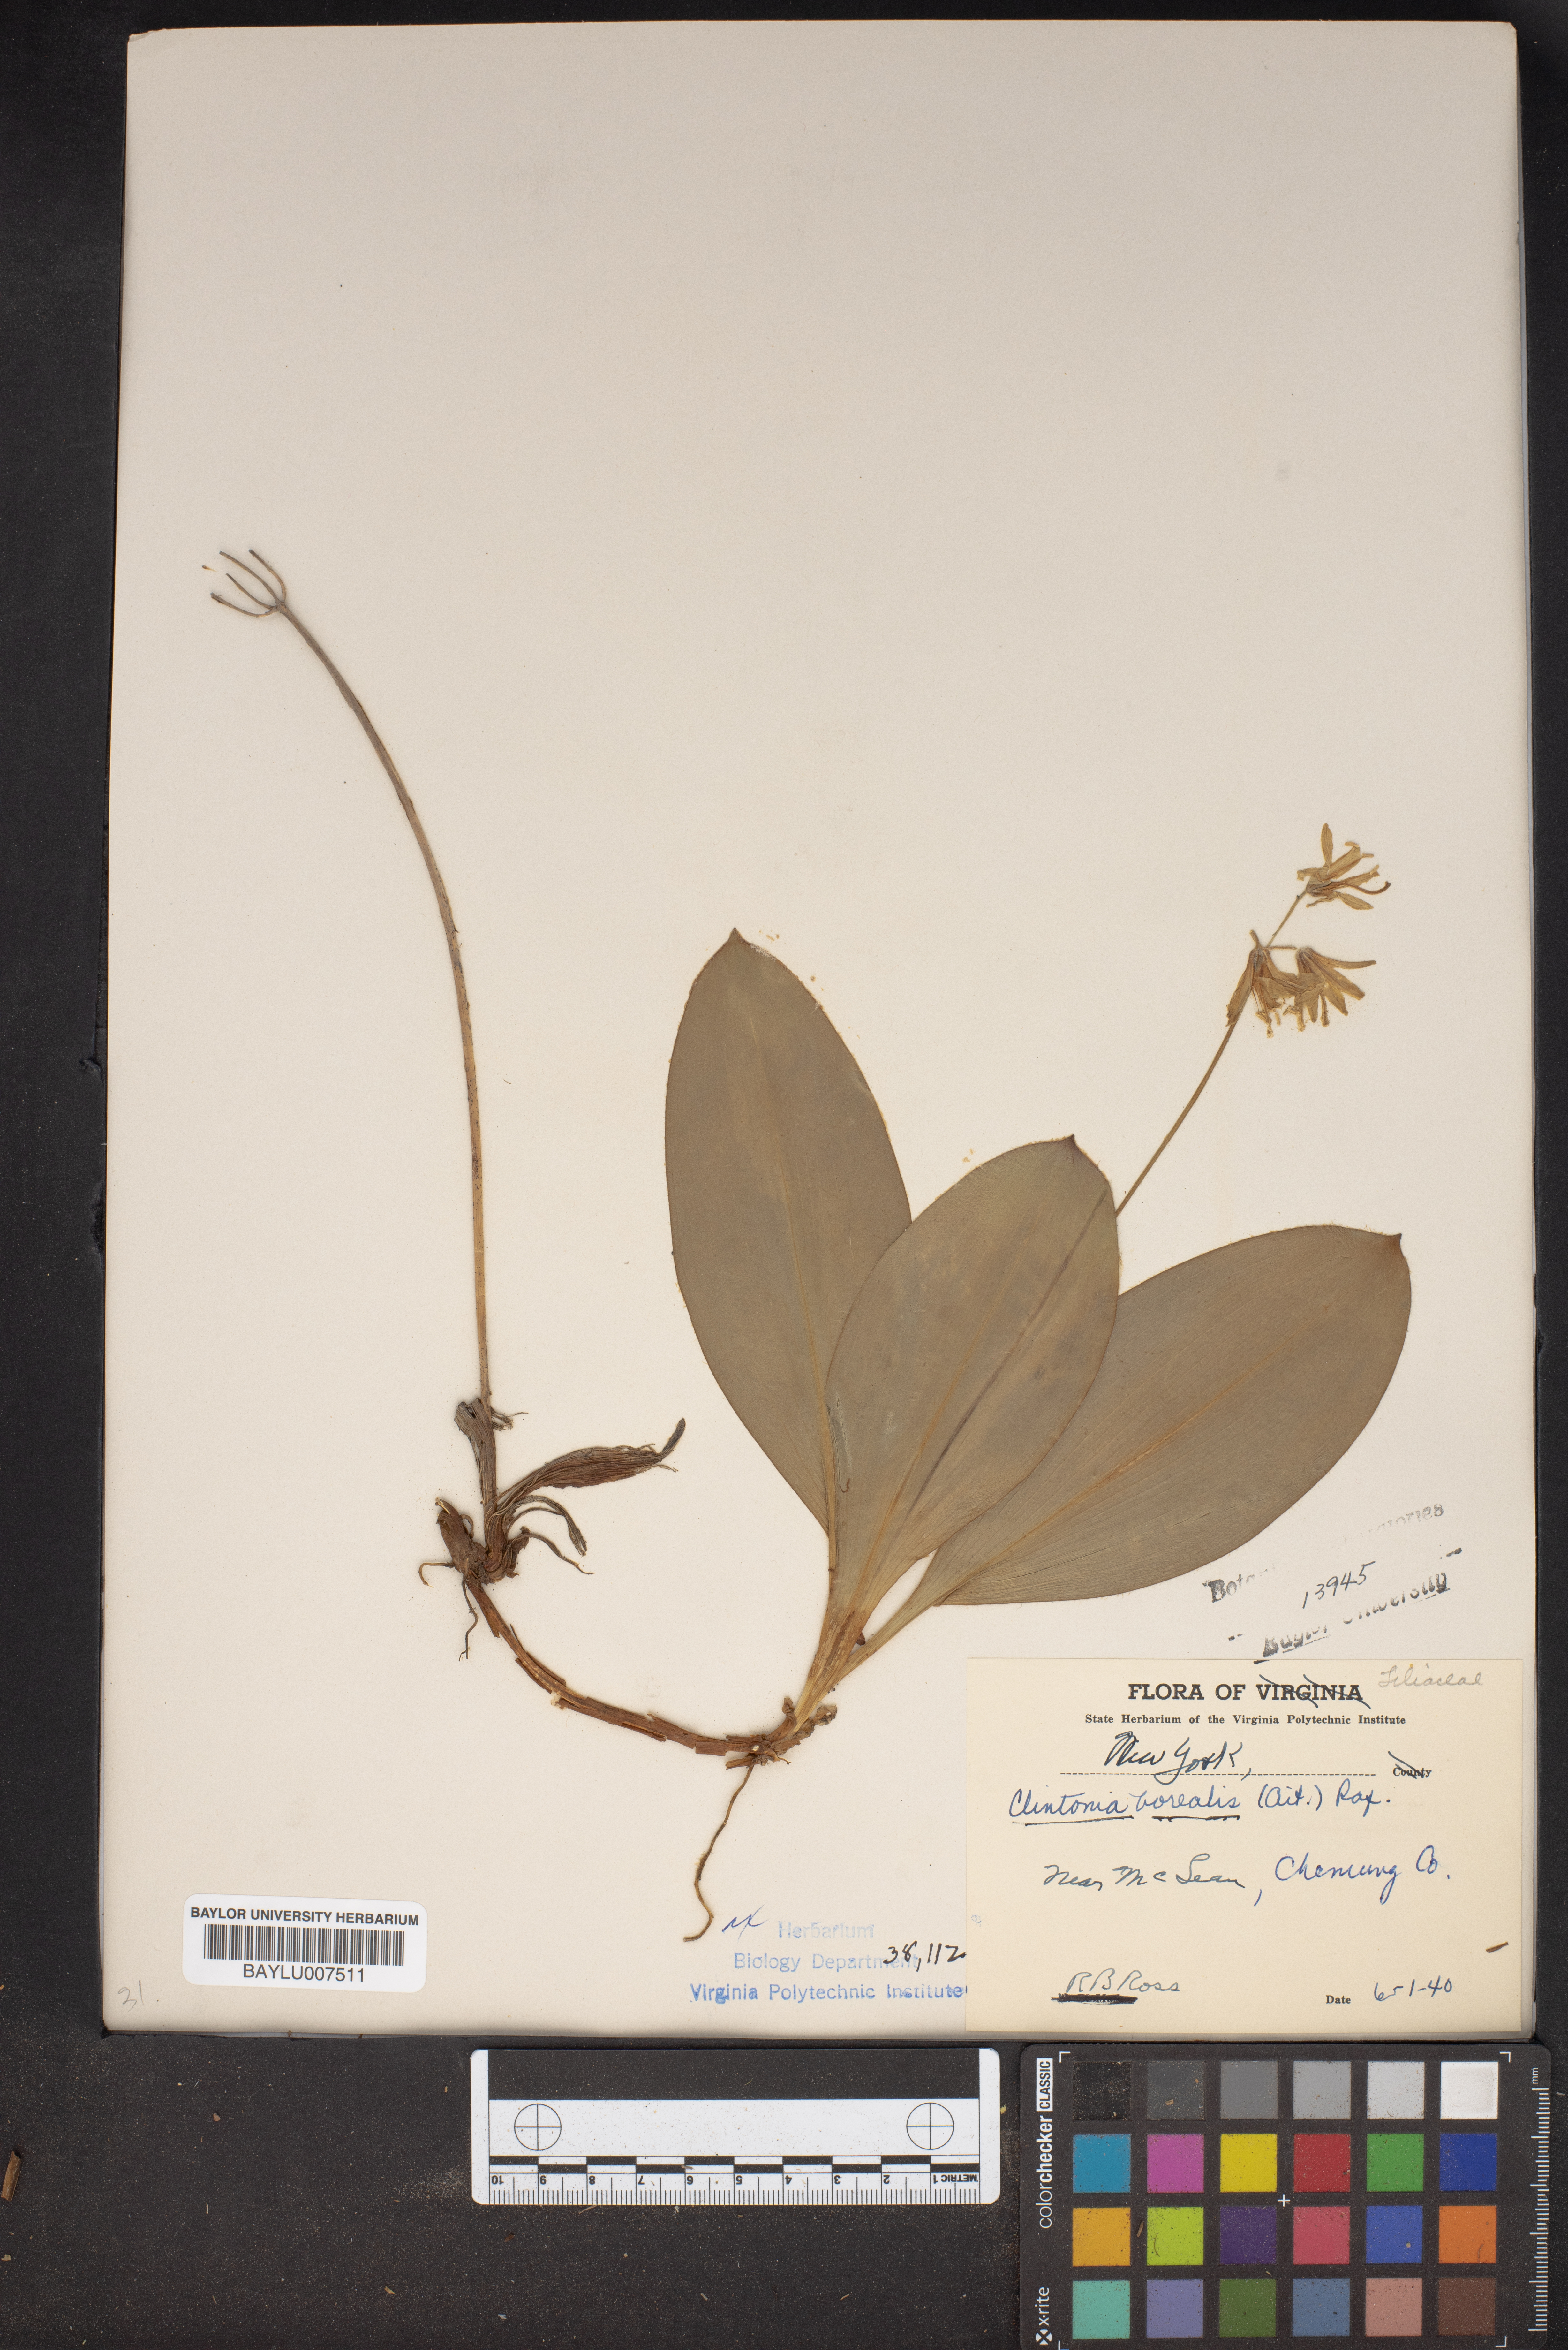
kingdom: Plantae
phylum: Tracheophyta
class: Liliopsida
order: Liliales
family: Liliaceae
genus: Clintonia
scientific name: Clintonia borealis
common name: Yellow clintonia
